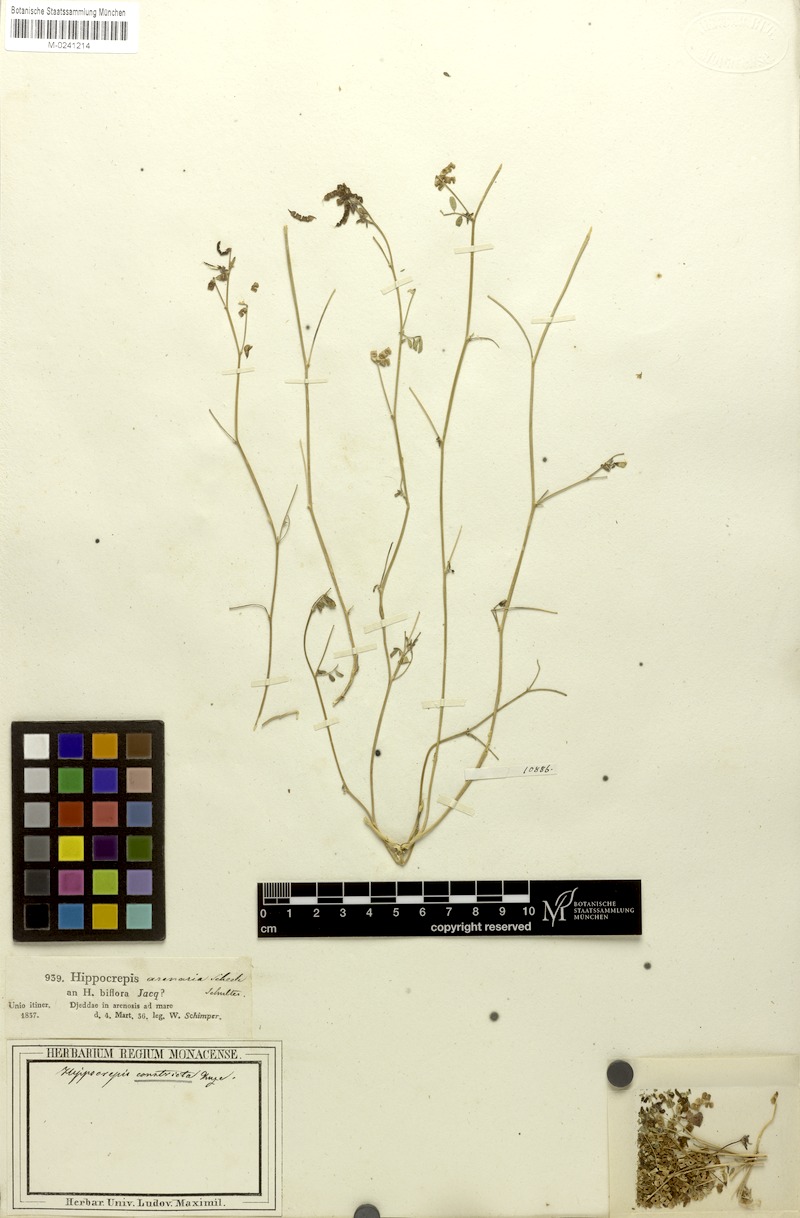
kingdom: Plantae
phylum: Tracheophyta
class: Magnoliopsida
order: Fabales
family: Fabaceae
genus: Hippocrepis
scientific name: Hippocrepis constricta
